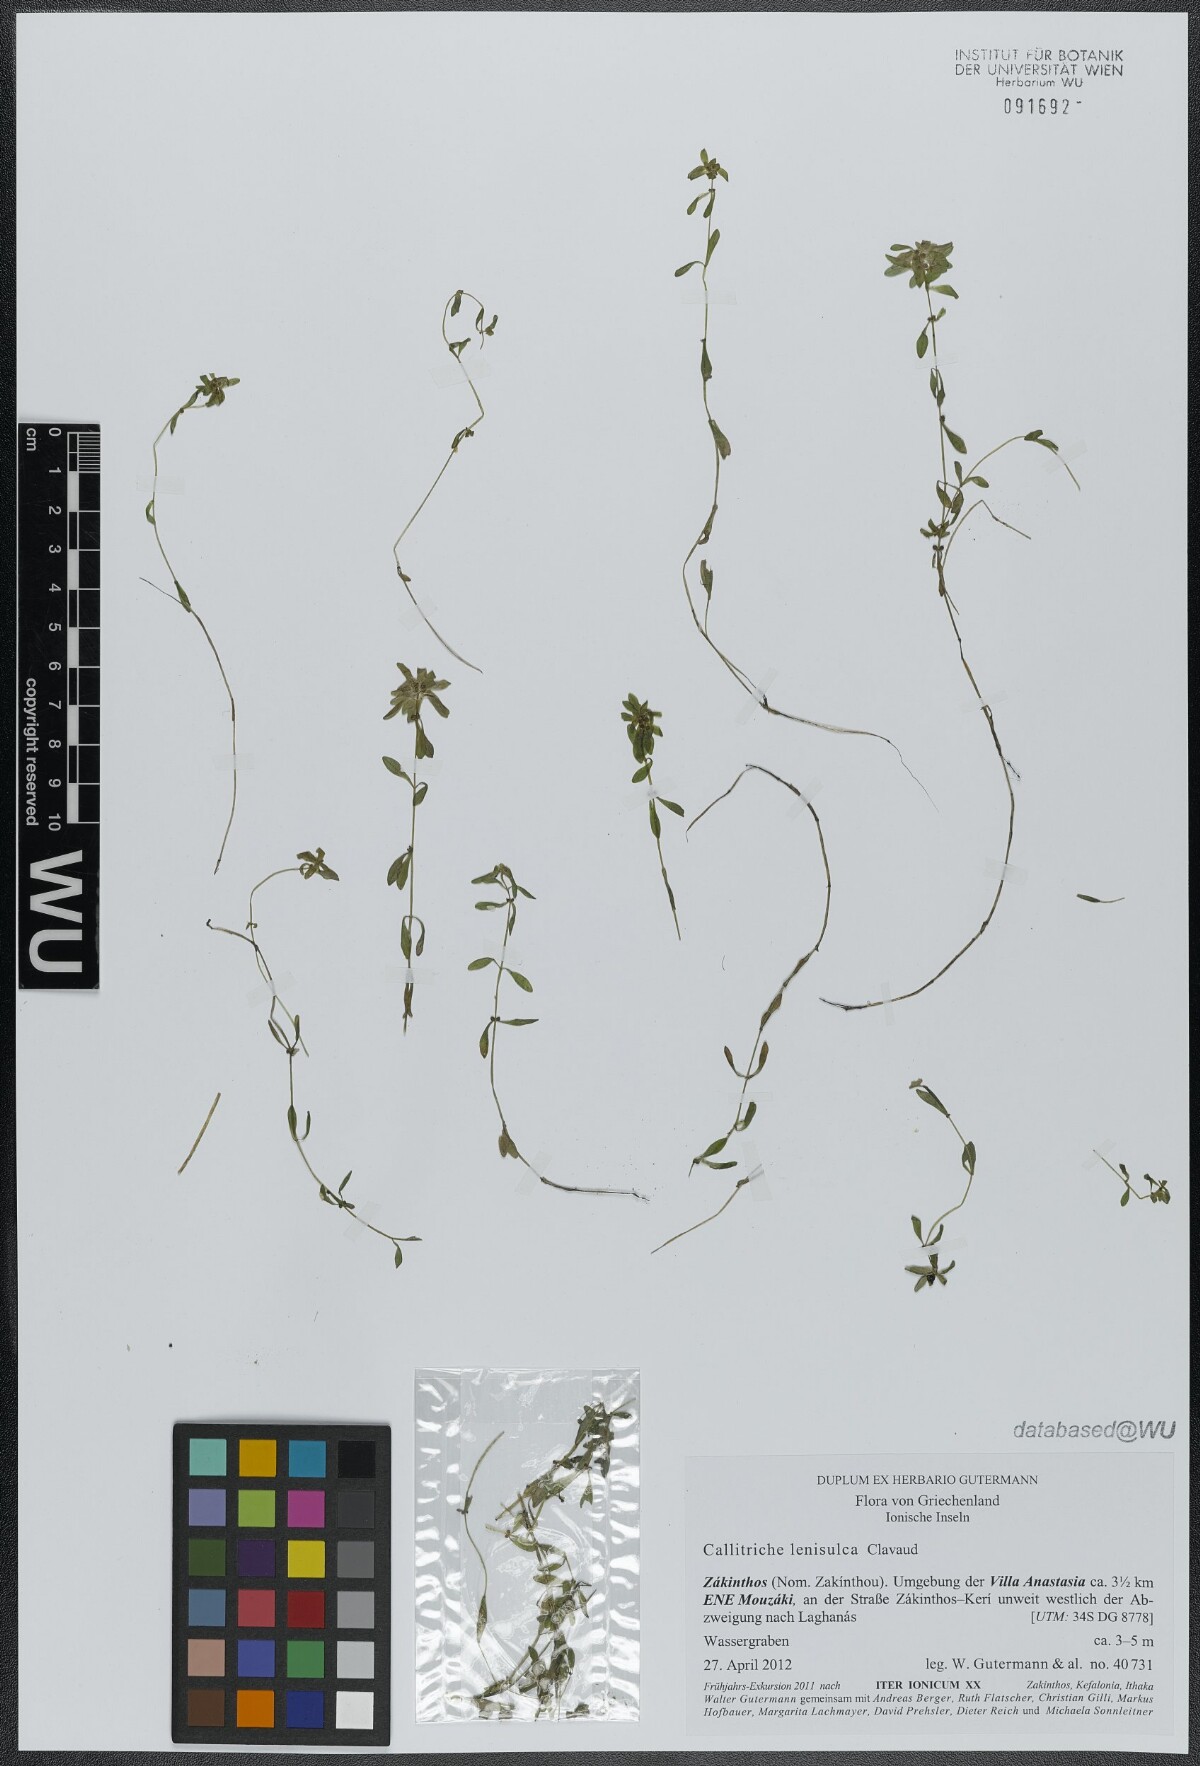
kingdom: Plantae
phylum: Tracheophyta
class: Magnoliopsida
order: Lamiales
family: Plantaginaceae
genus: Callitriche
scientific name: Callitriche lenisulca
